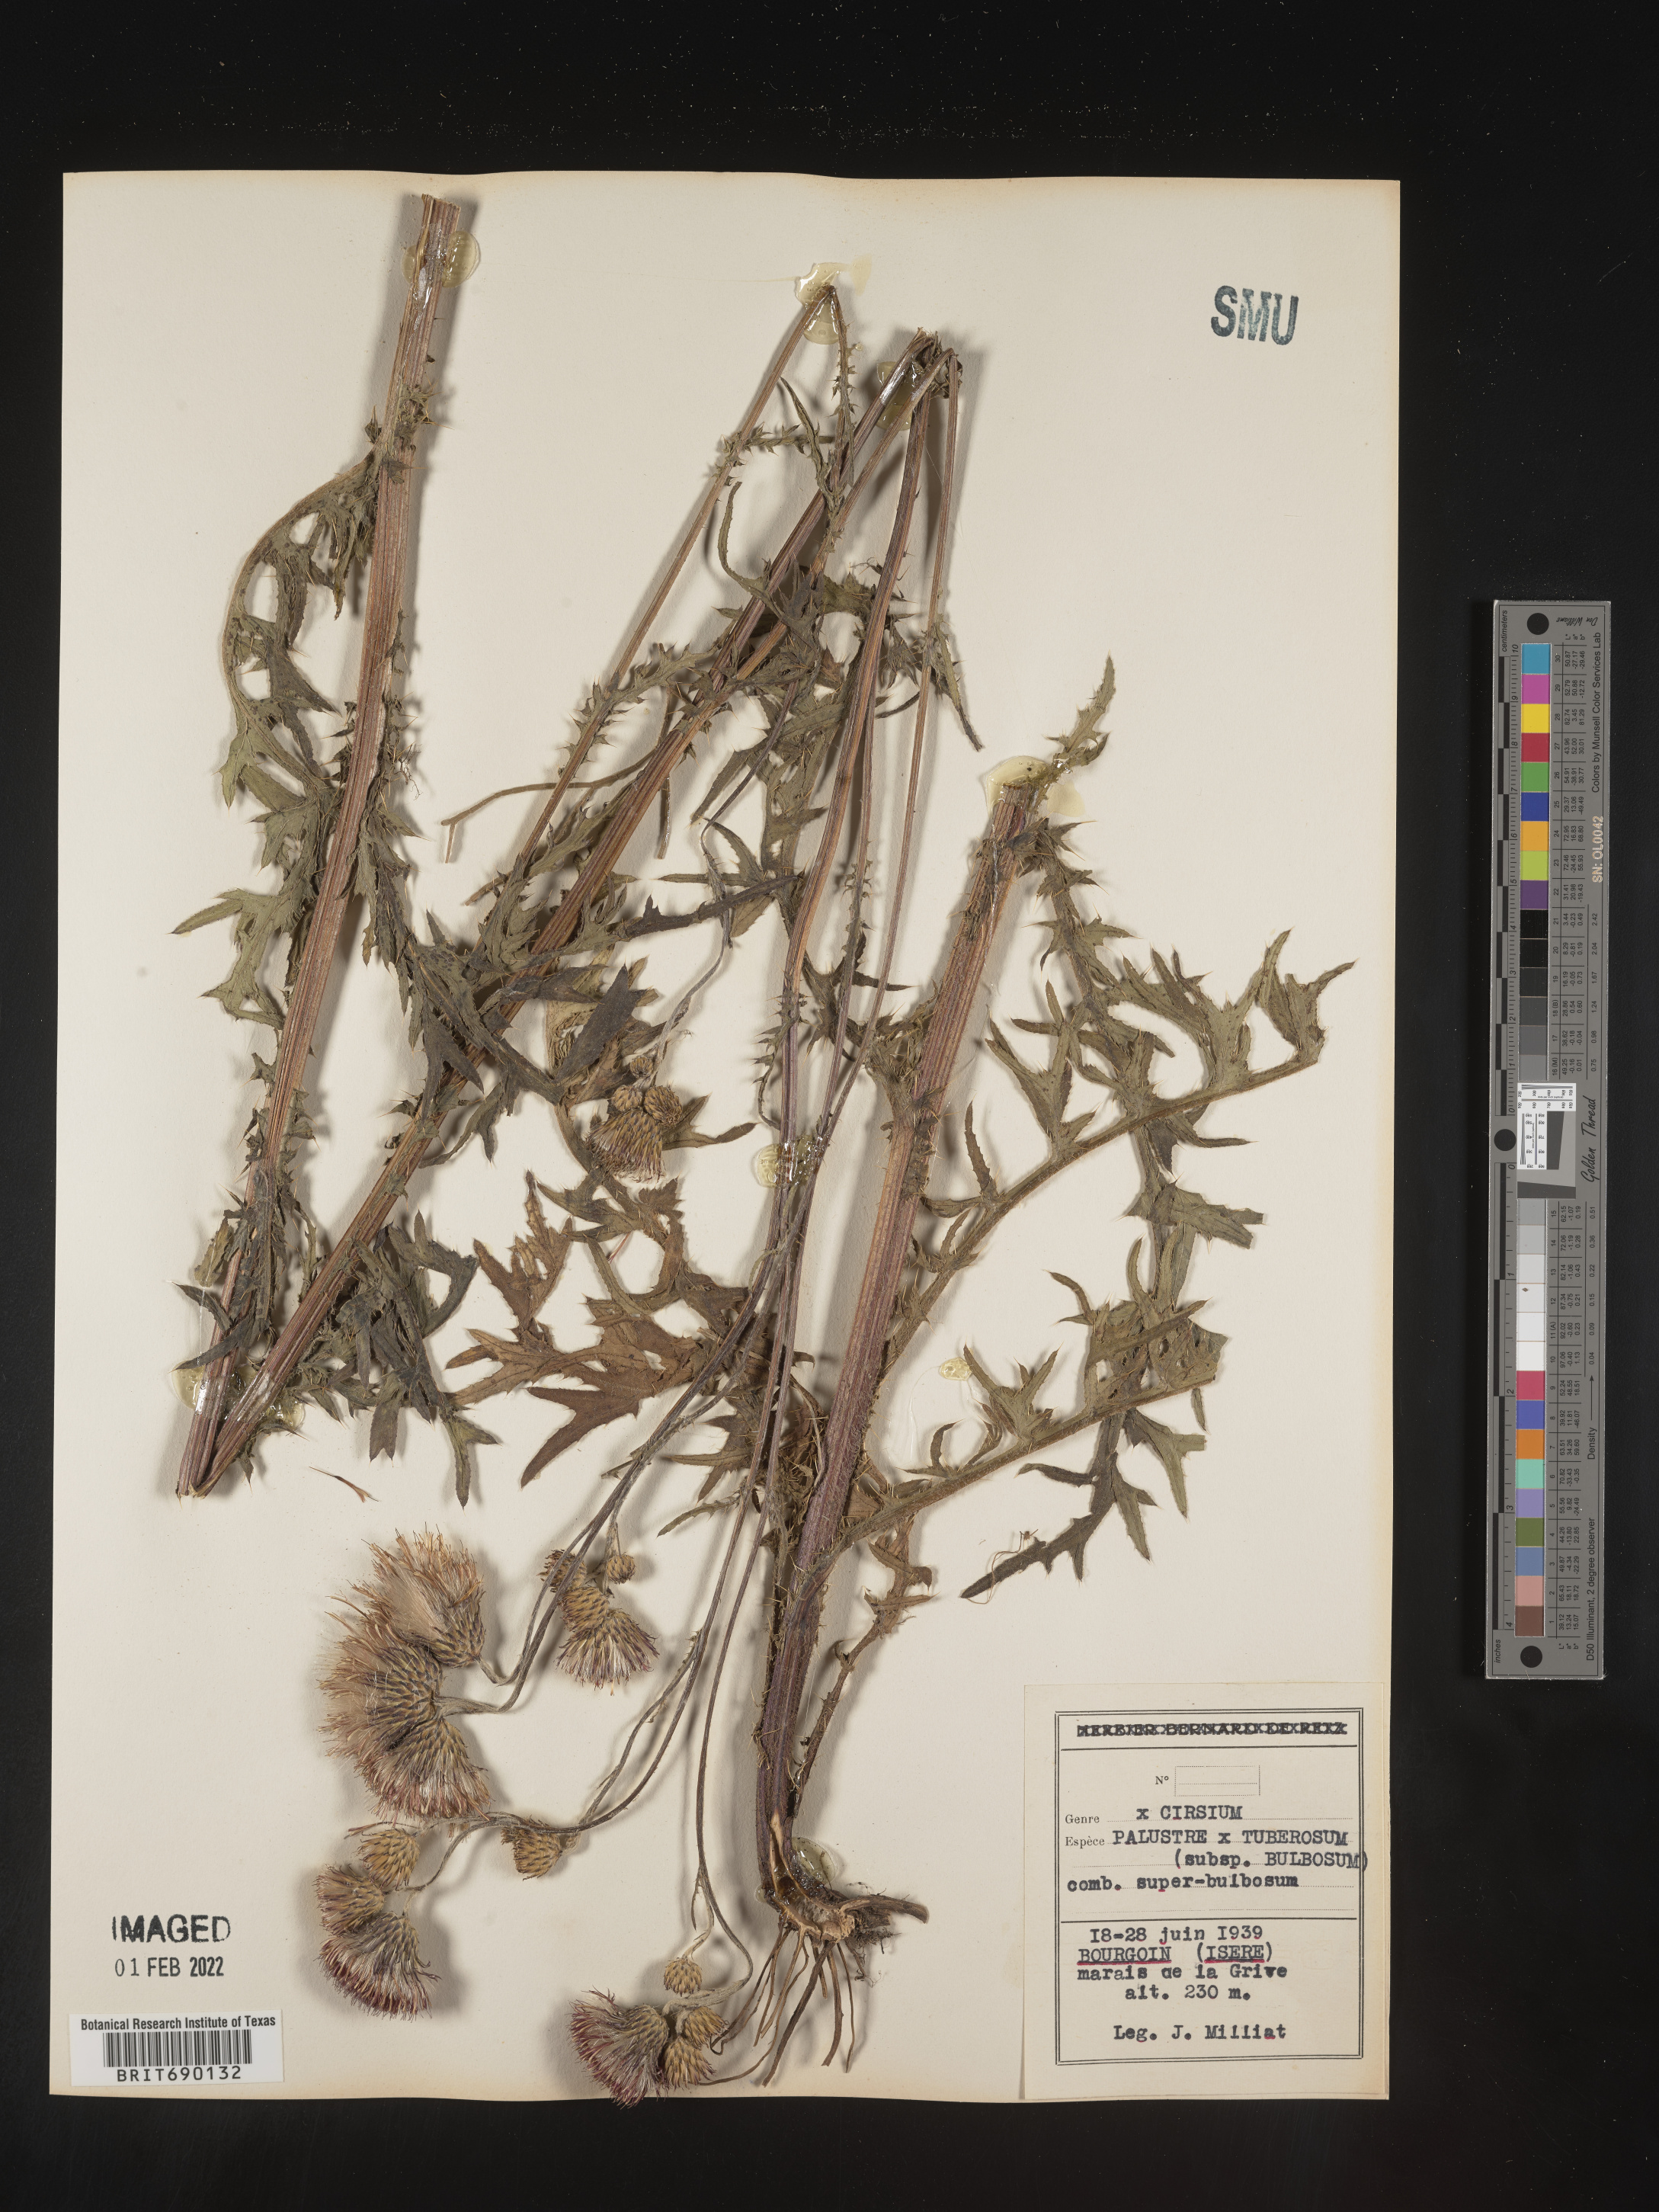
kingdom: Plantae
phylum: Tracheophyta
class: Magnoliopsida
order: Asterales
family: Asteraceae
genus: Cirsium
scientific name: Cirsium
